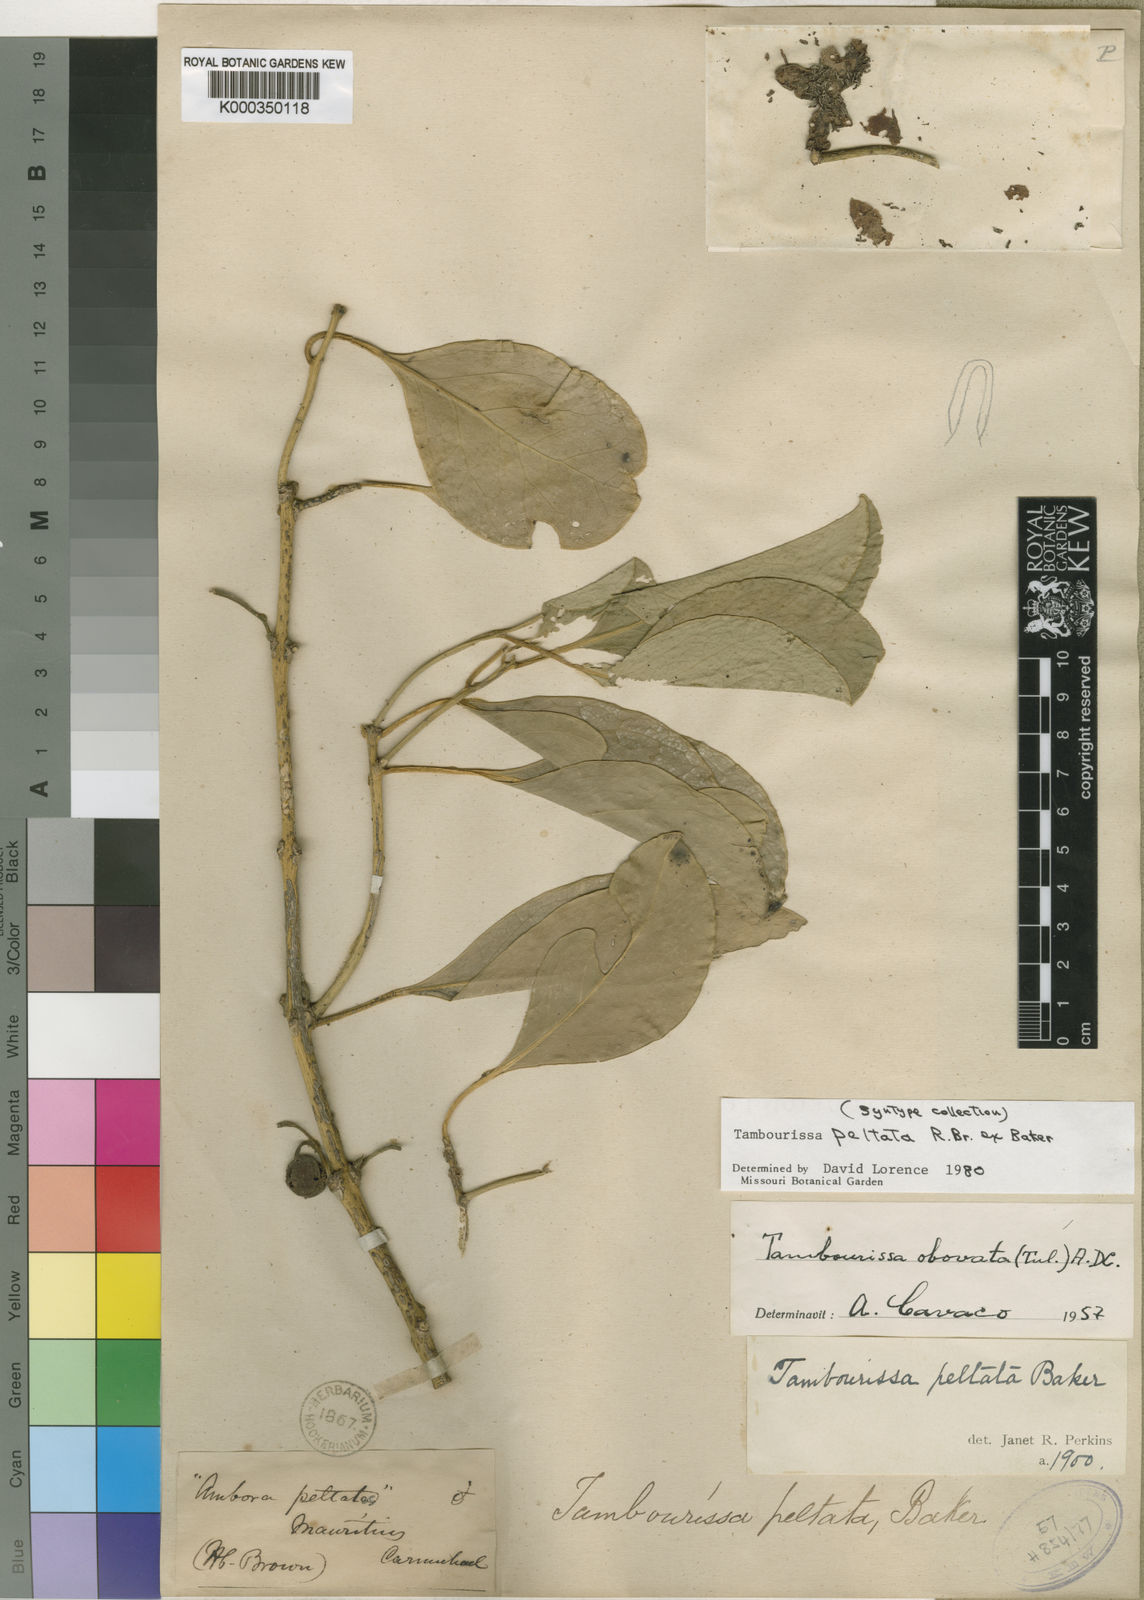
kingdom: Plantae
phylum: Tracheophyta
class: Magnoliopsida
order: Laurales
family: Monimiaceae
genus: Tambourissa
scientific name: Tambourissa peltata
